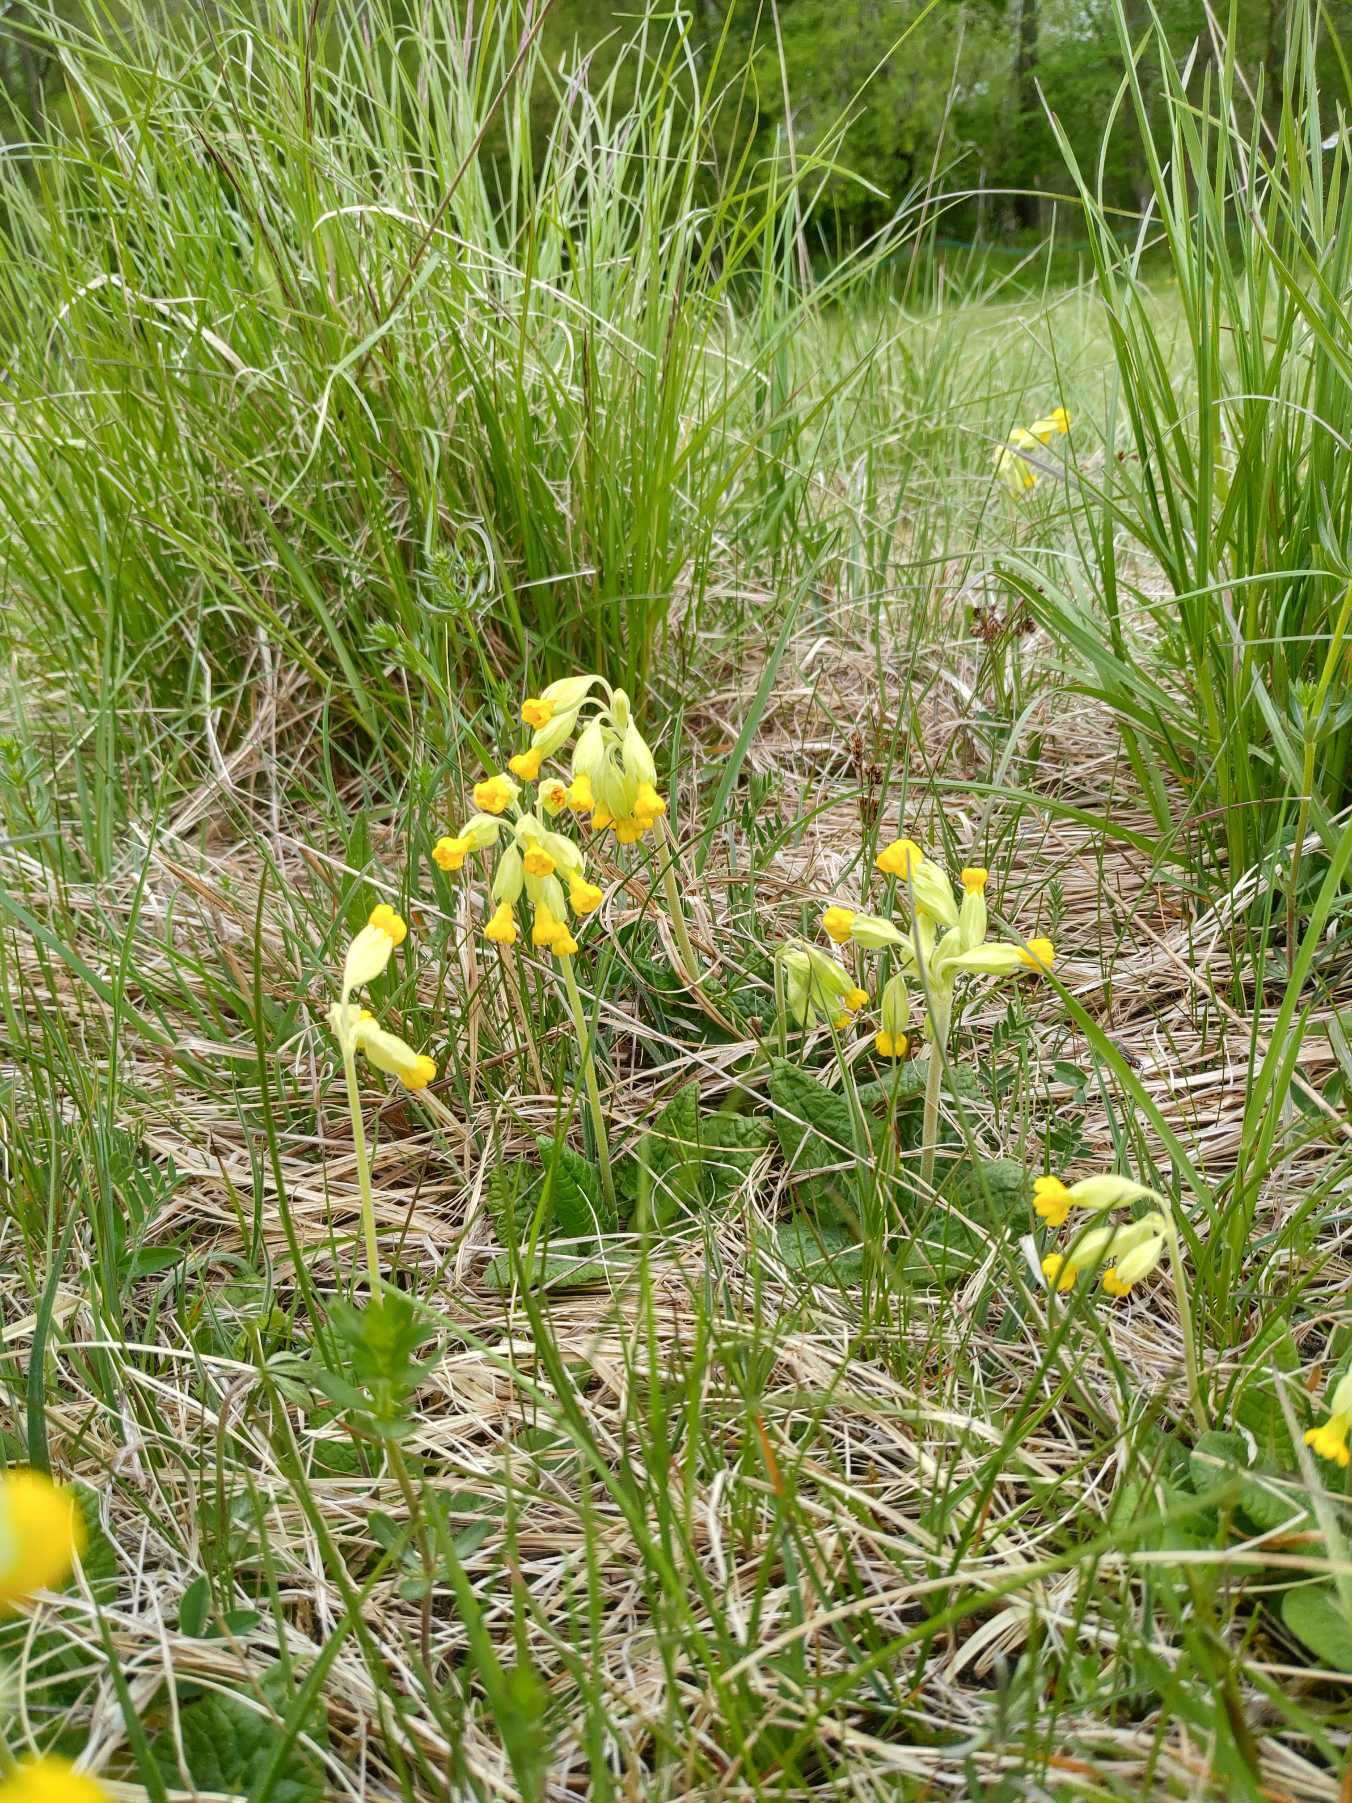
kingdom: Plantae
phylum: Tracheophyta
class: Magnoliopsida
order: Ericales
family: Primulaceae
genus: Primula
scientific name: Primula veris
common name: Hulkravet kodriver
